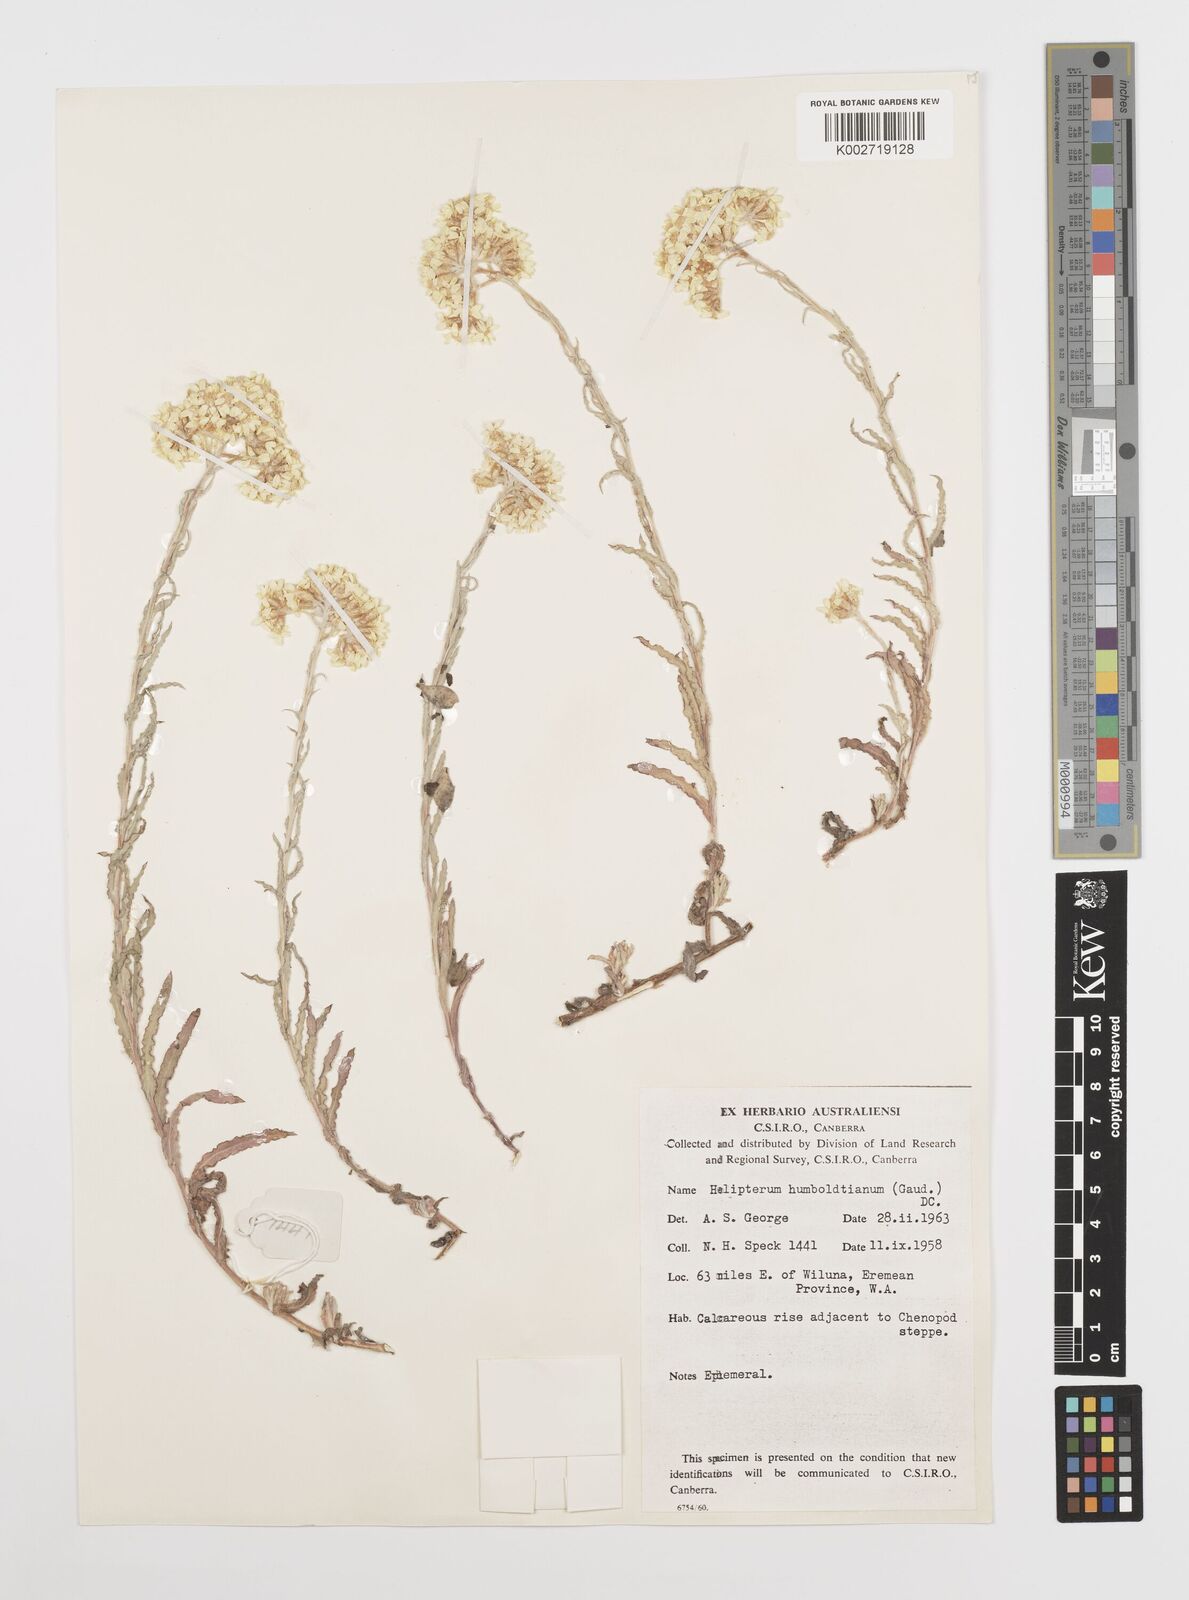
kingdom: Plantae
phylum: Tracheophyta
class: Magnoliopsida
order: Asterales
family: Asteraceae
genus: Rhodanthe
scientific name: Rhodanthe humboldtiana
